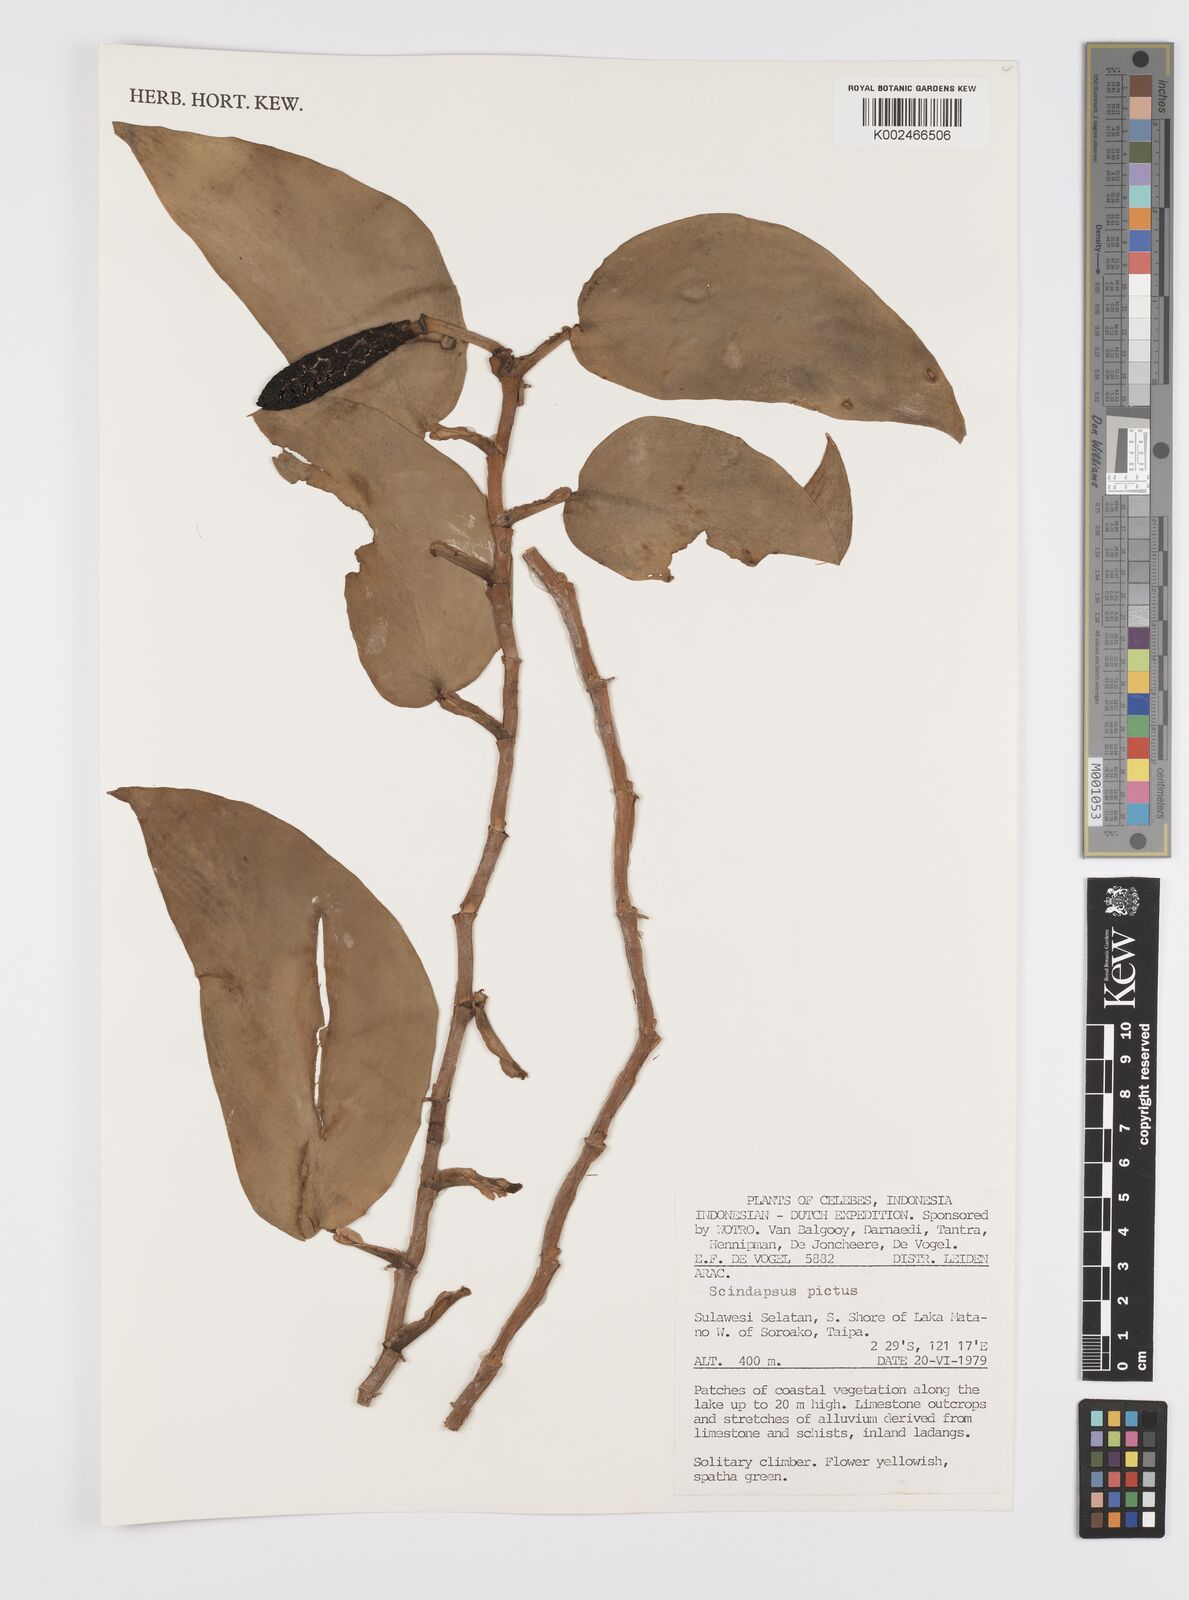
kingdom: Plantae
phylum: Tracheophyta
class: Liliopsida
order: Alismatales
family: Araceae
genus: Scindapsus
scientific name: Scindapsus pictus
